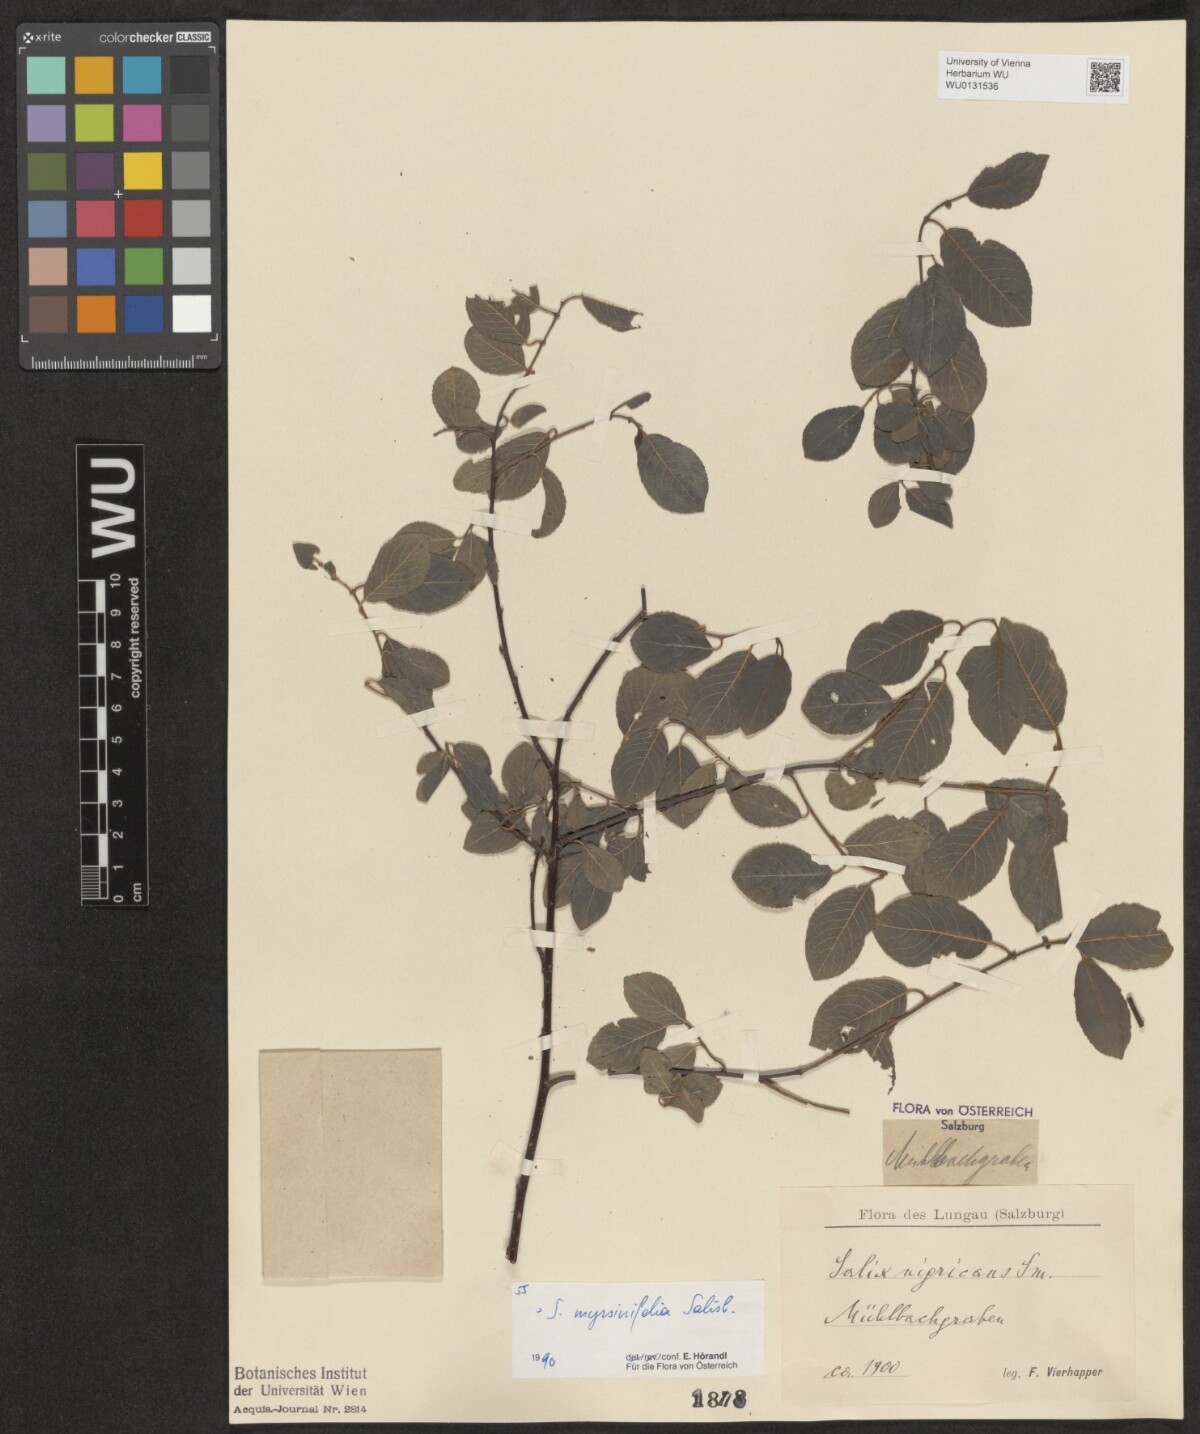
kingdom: Plantae
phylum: Tracheophyta
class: Magnoliopsida
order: Malpighiales
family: Salicaceae
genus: Salix
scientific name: Salix myrsinifolia
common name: Dark-leaved willow
